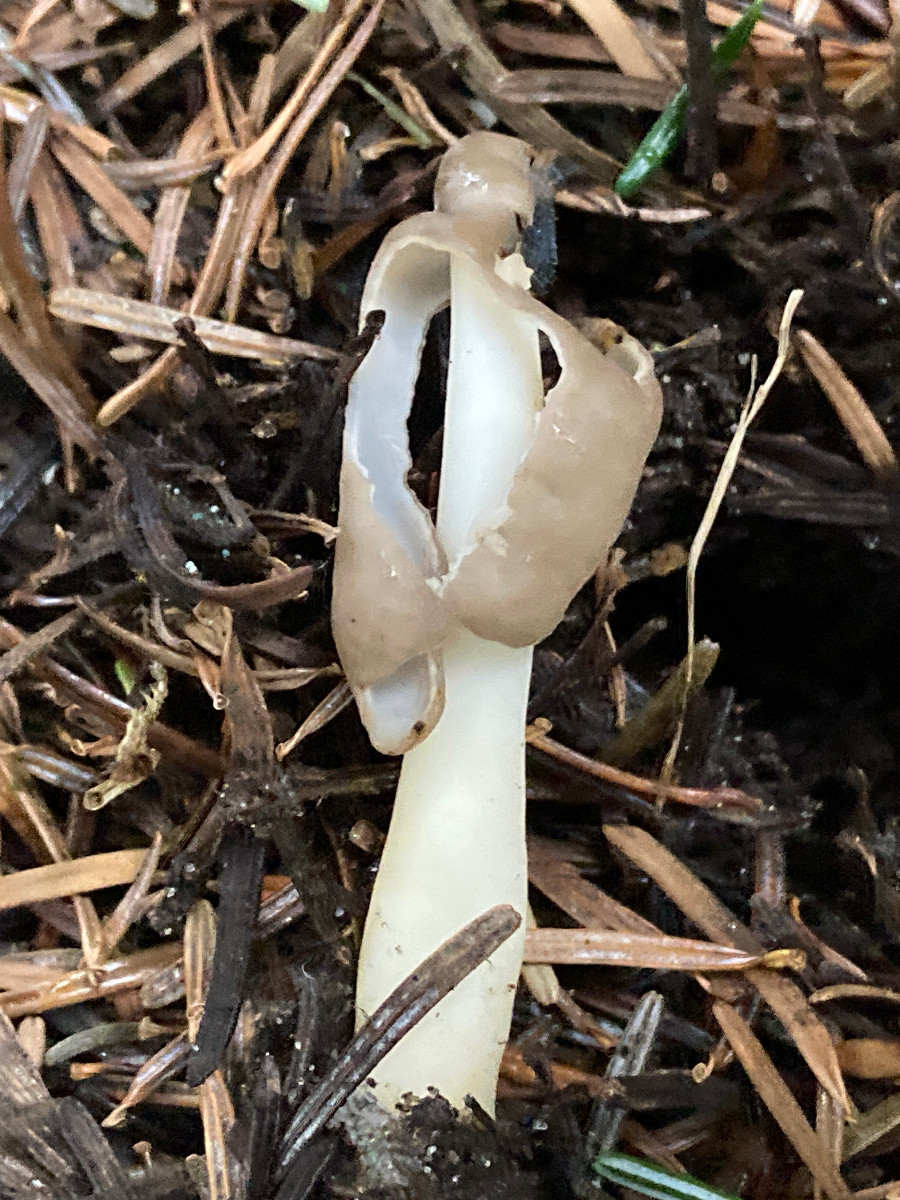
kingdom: Fungi
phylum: Ascomycota
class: Pezizomycetes
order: Pezizales
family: Helvellaceae
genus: Helvella
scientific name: Helvella elastica
